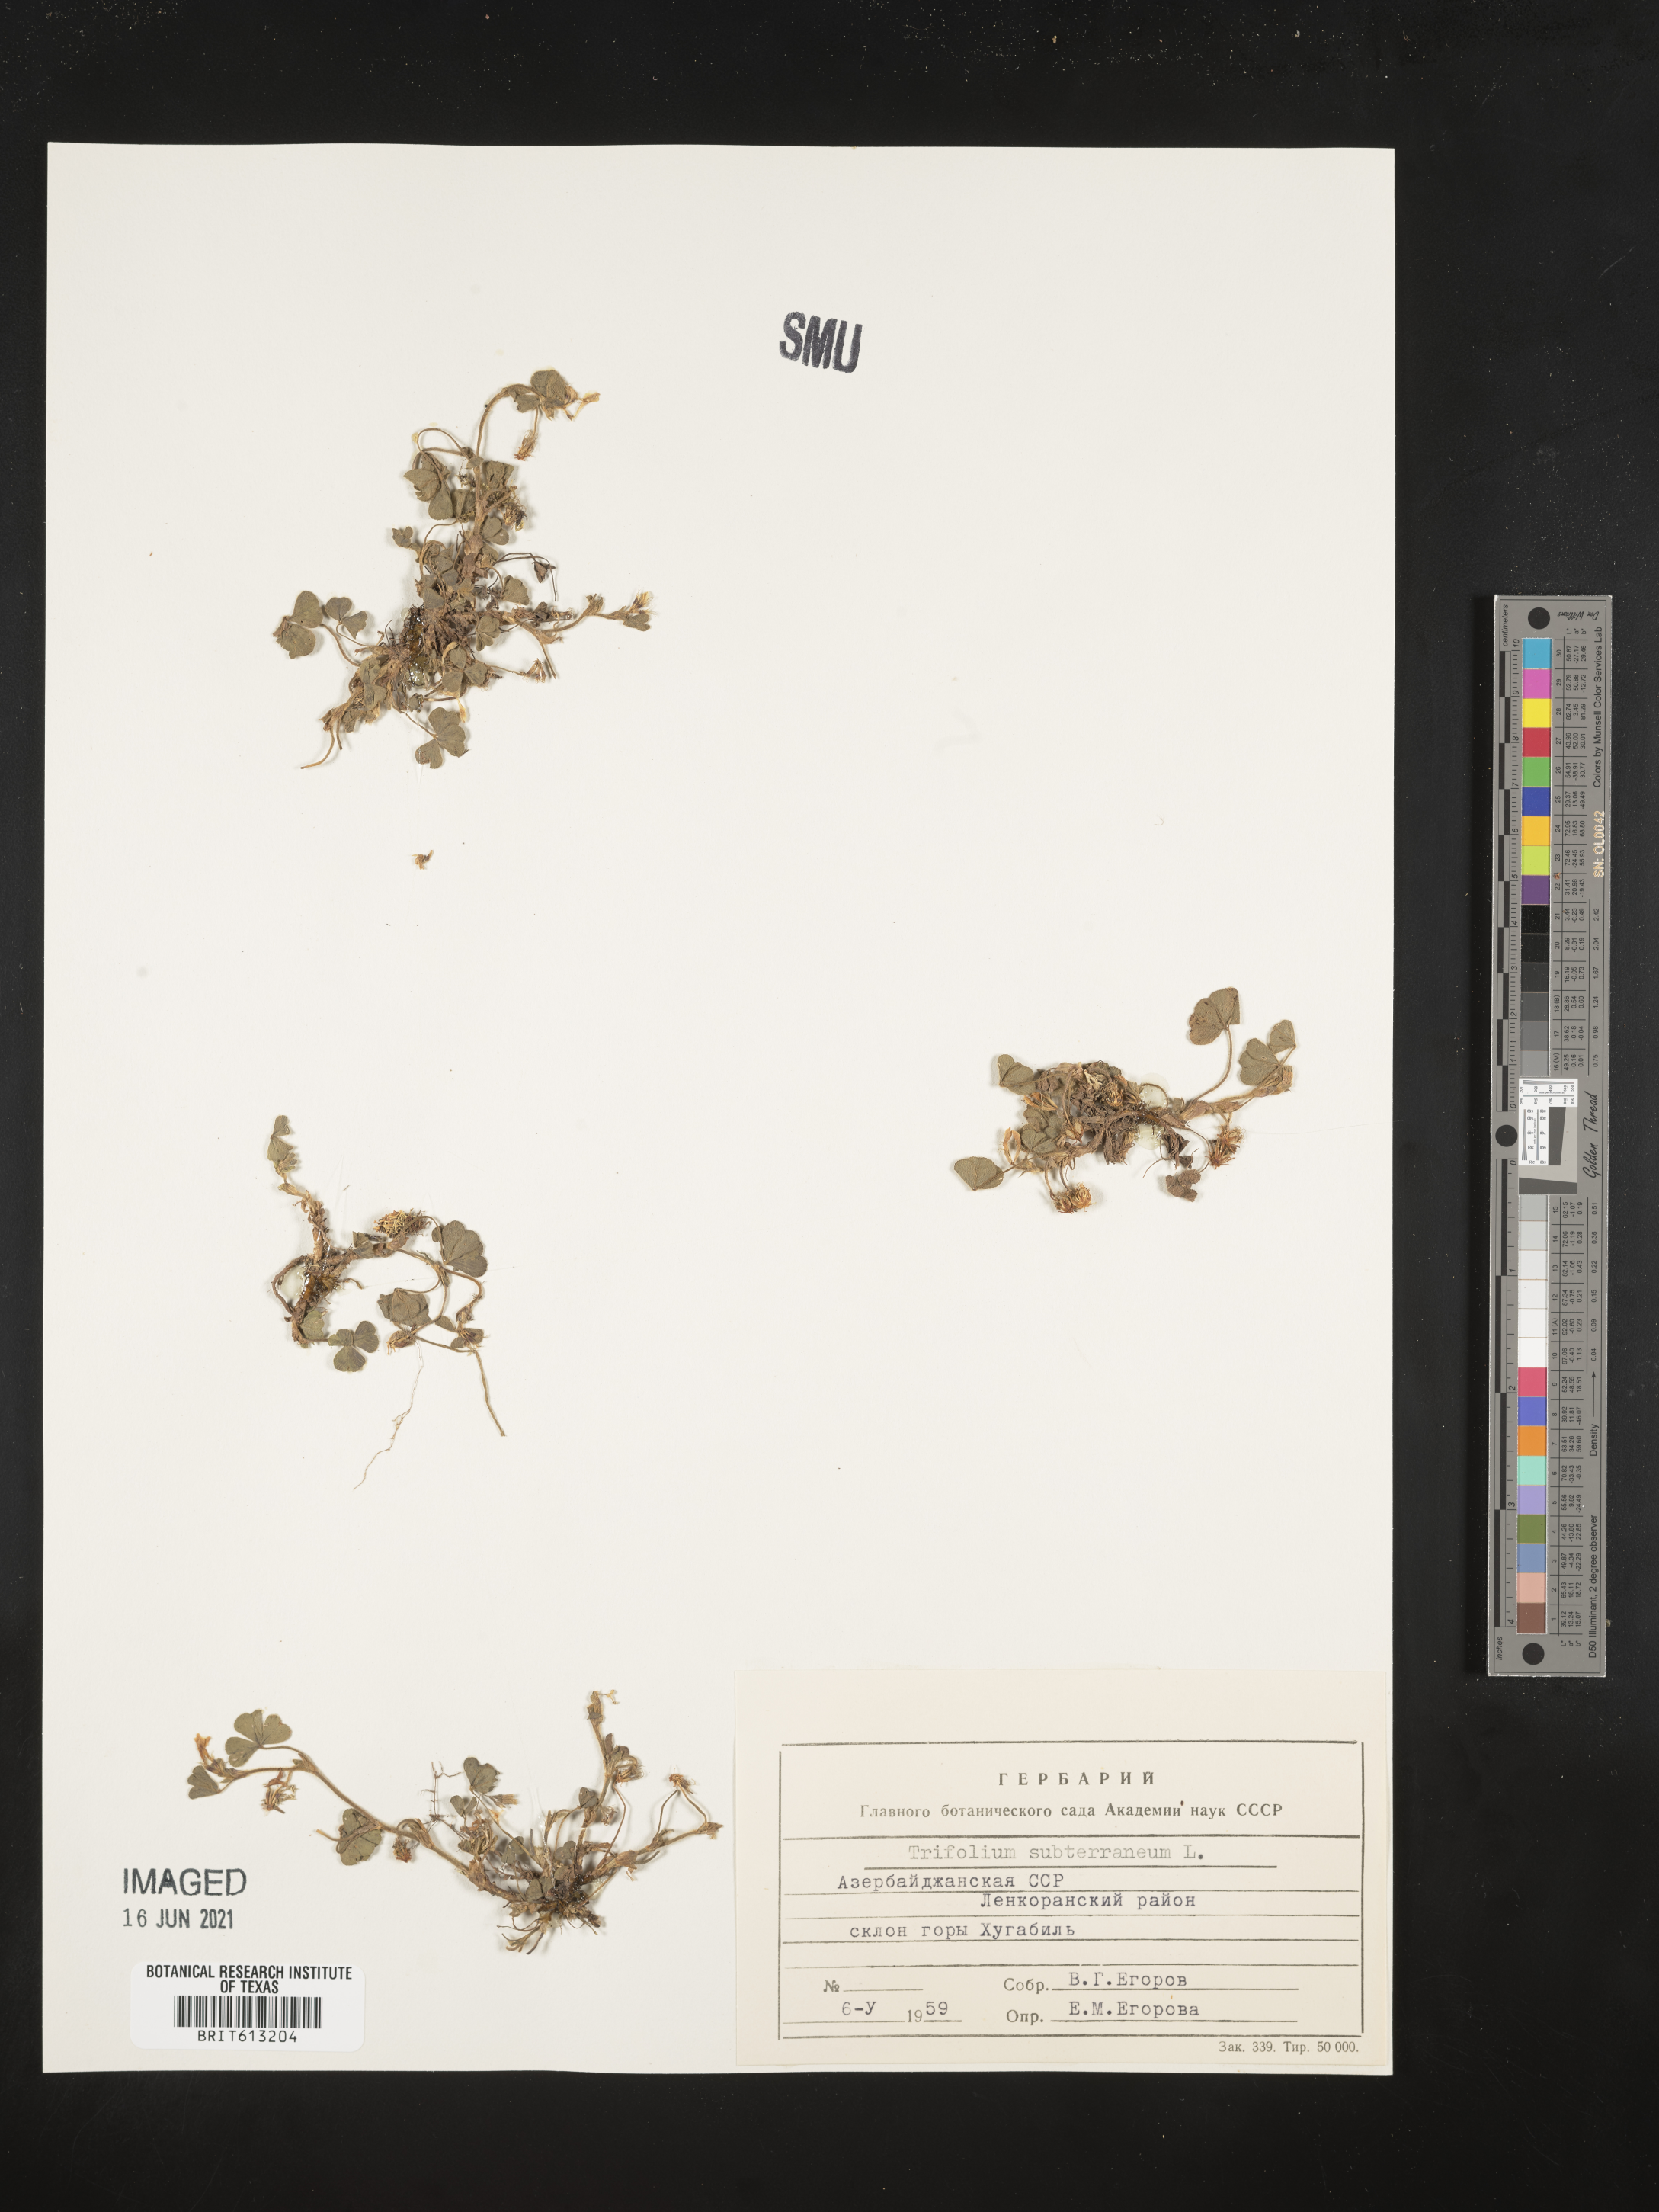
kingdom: Plantae
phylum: Tracheophyta
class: Magnoliopsida
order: Fabales
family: Fabaceae
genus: Trifolium
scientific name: Trifolium subterraneum
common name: Subterranean clover
